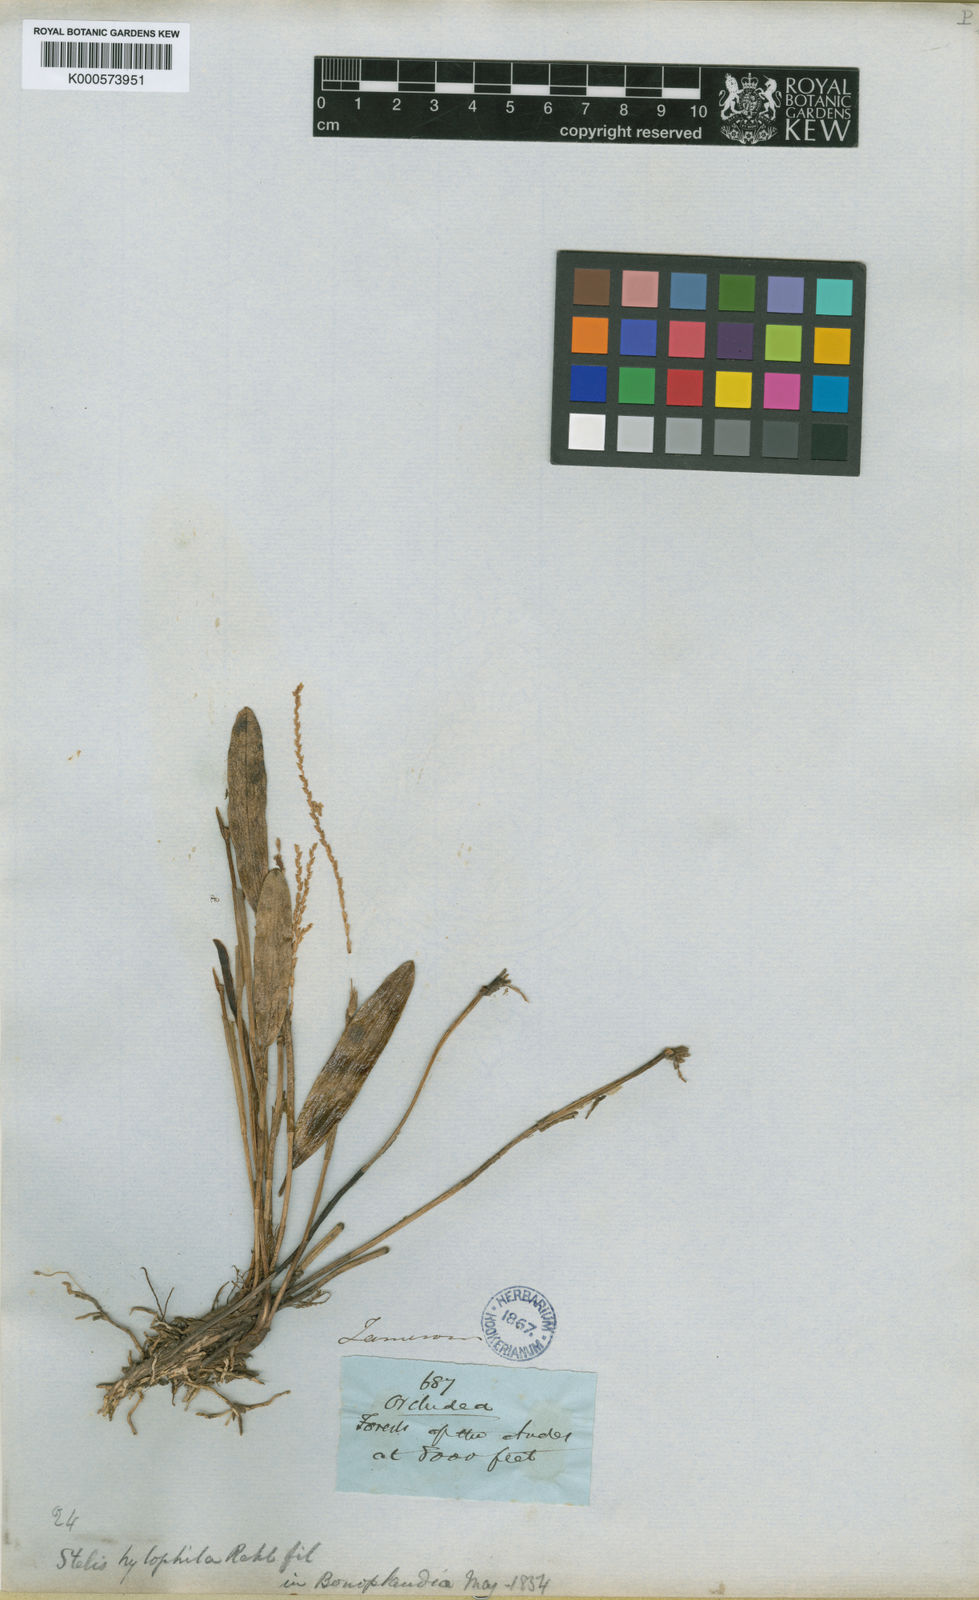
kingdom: Plantae
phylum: Tracheophyta
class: Liliopsida
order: Asparagales
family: Orchidaceae
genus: Stelis
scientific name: Stelis hylophila
